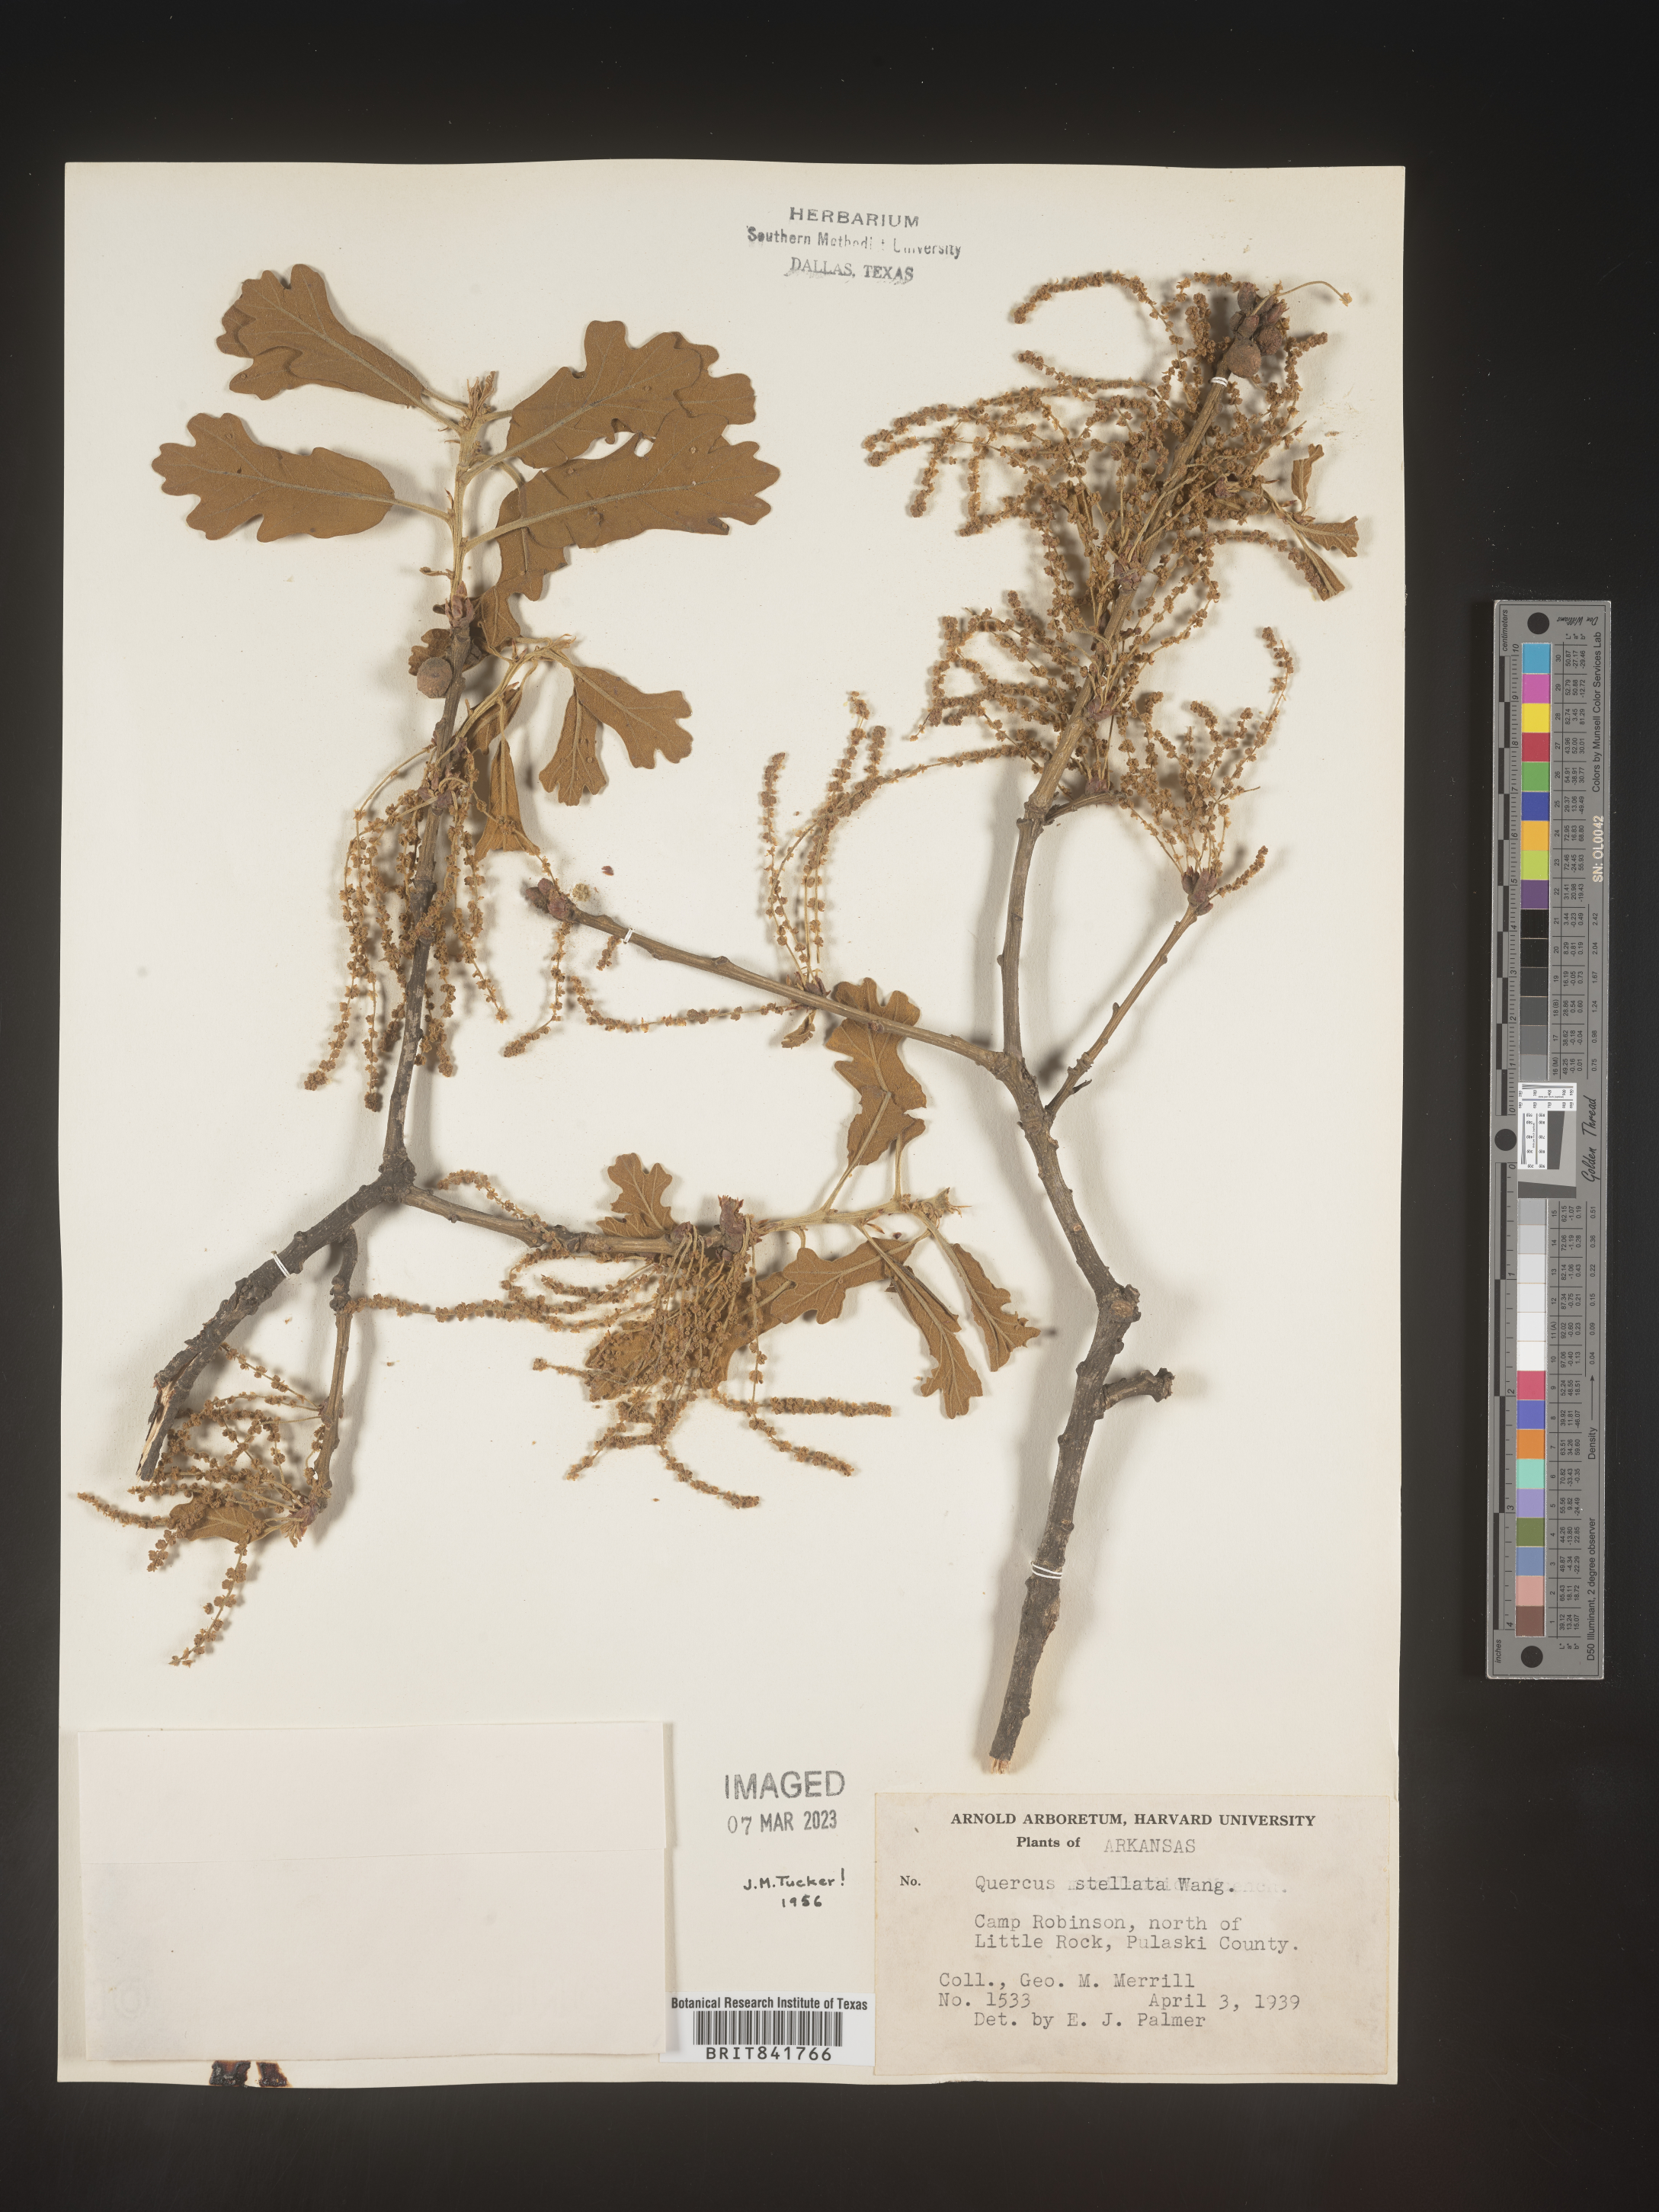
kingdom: Plantae
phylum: Tracheophyta
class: Magnoliopsida
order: Fagales
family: Fagaceae
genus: Quercus
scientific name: Quercus stellata
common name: Post oak
